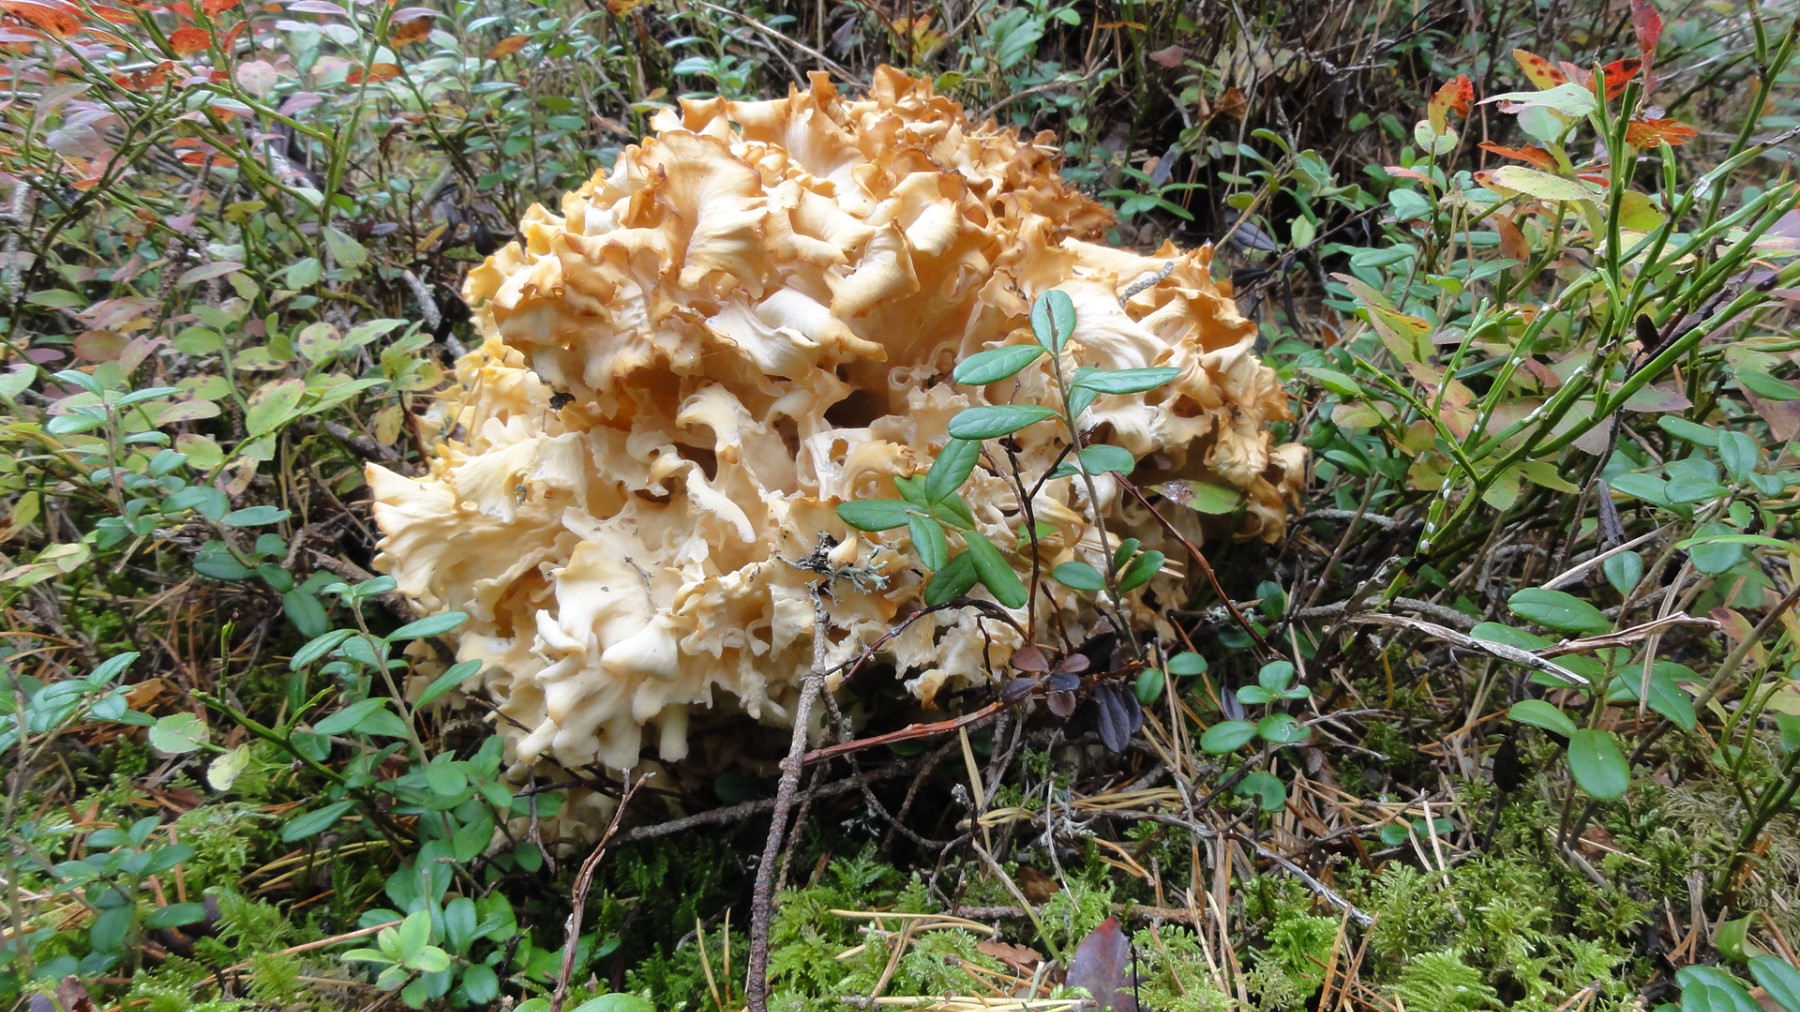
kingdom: Fungi
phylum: Basidiomycota
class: Agaricomycetes
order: Polyporales
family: Sparassidaceae
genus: Sparassis
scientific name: Sparassis crispa
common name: kruset blomkålssvamp
